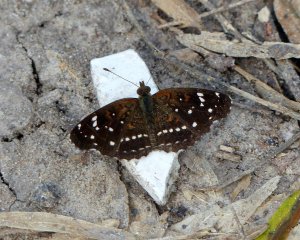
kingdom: Animalia
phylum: Arthropoda
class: Insecta
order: Lepidoptera
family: Nymphalidae
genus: Anthanassa
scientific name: Anthanassa texana
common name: Texan Crescent
